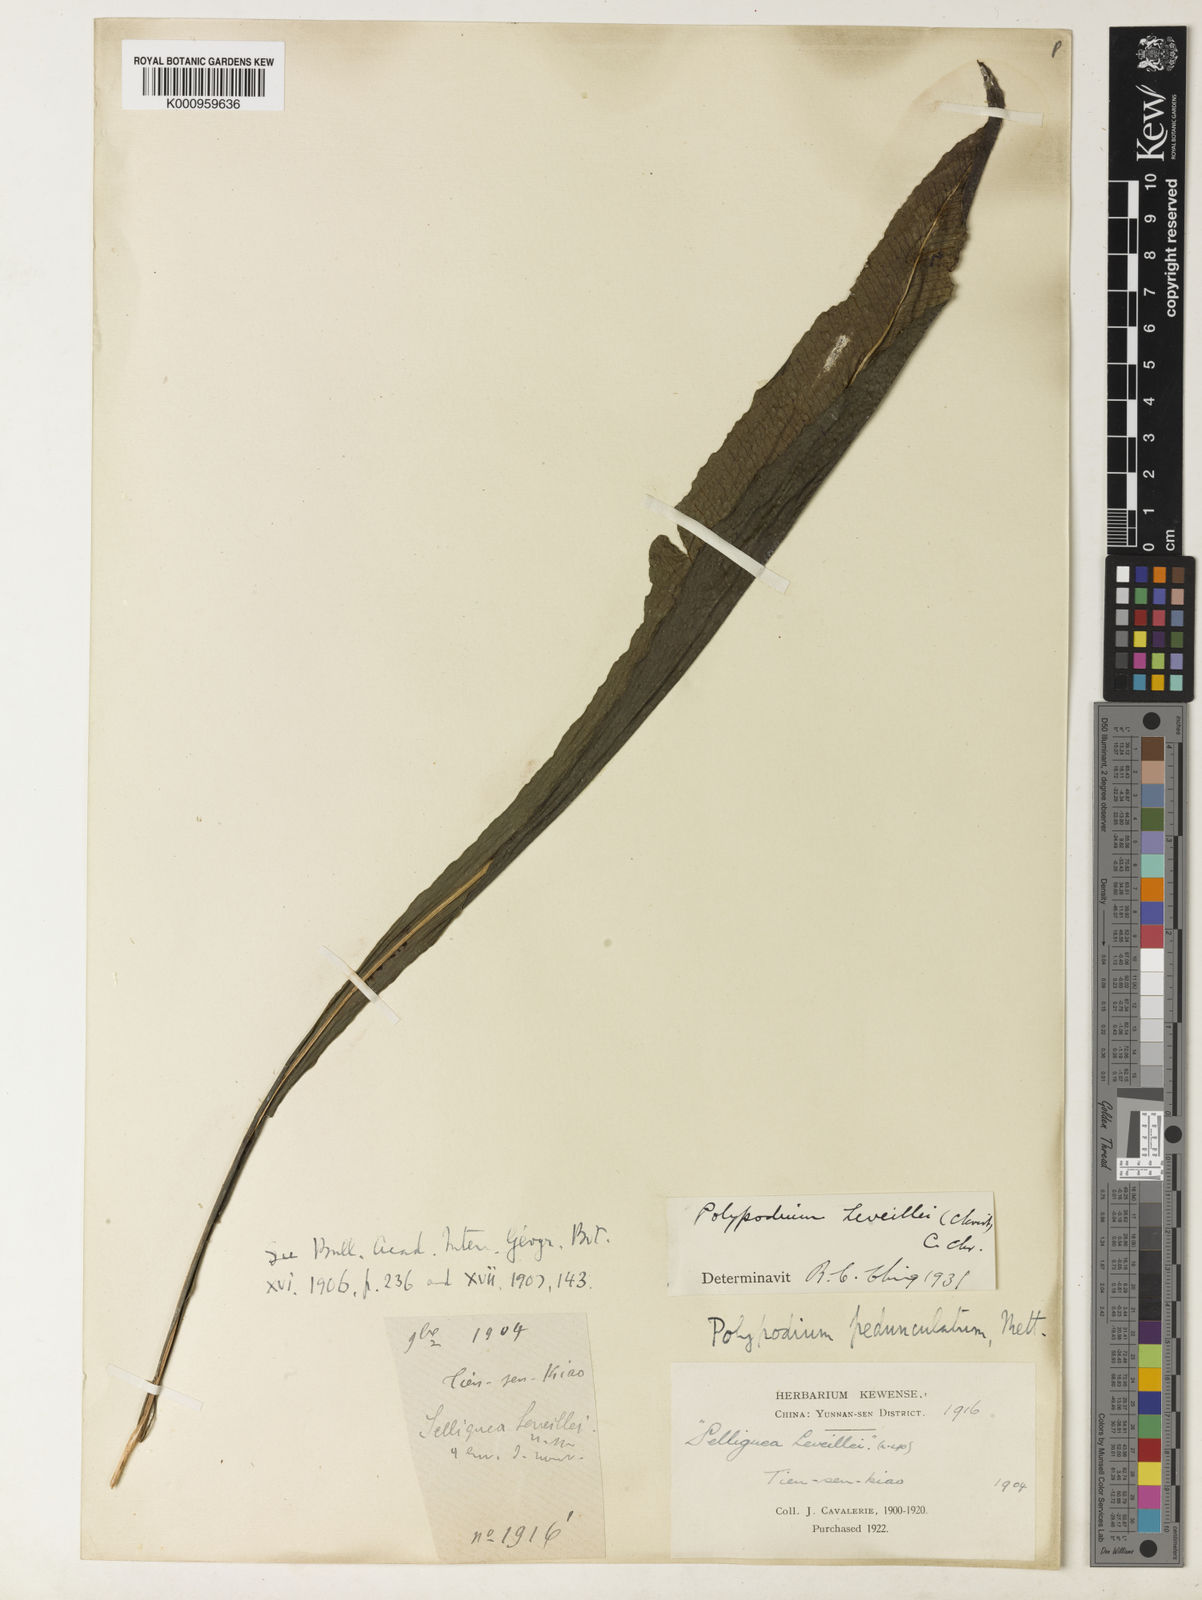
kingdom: Plantae
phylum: Tracheophyta
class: Polypodiopsida
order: Polypodiales
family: Polypodiaceae
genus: Leptochilus
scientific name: Leptochilus leveillei
